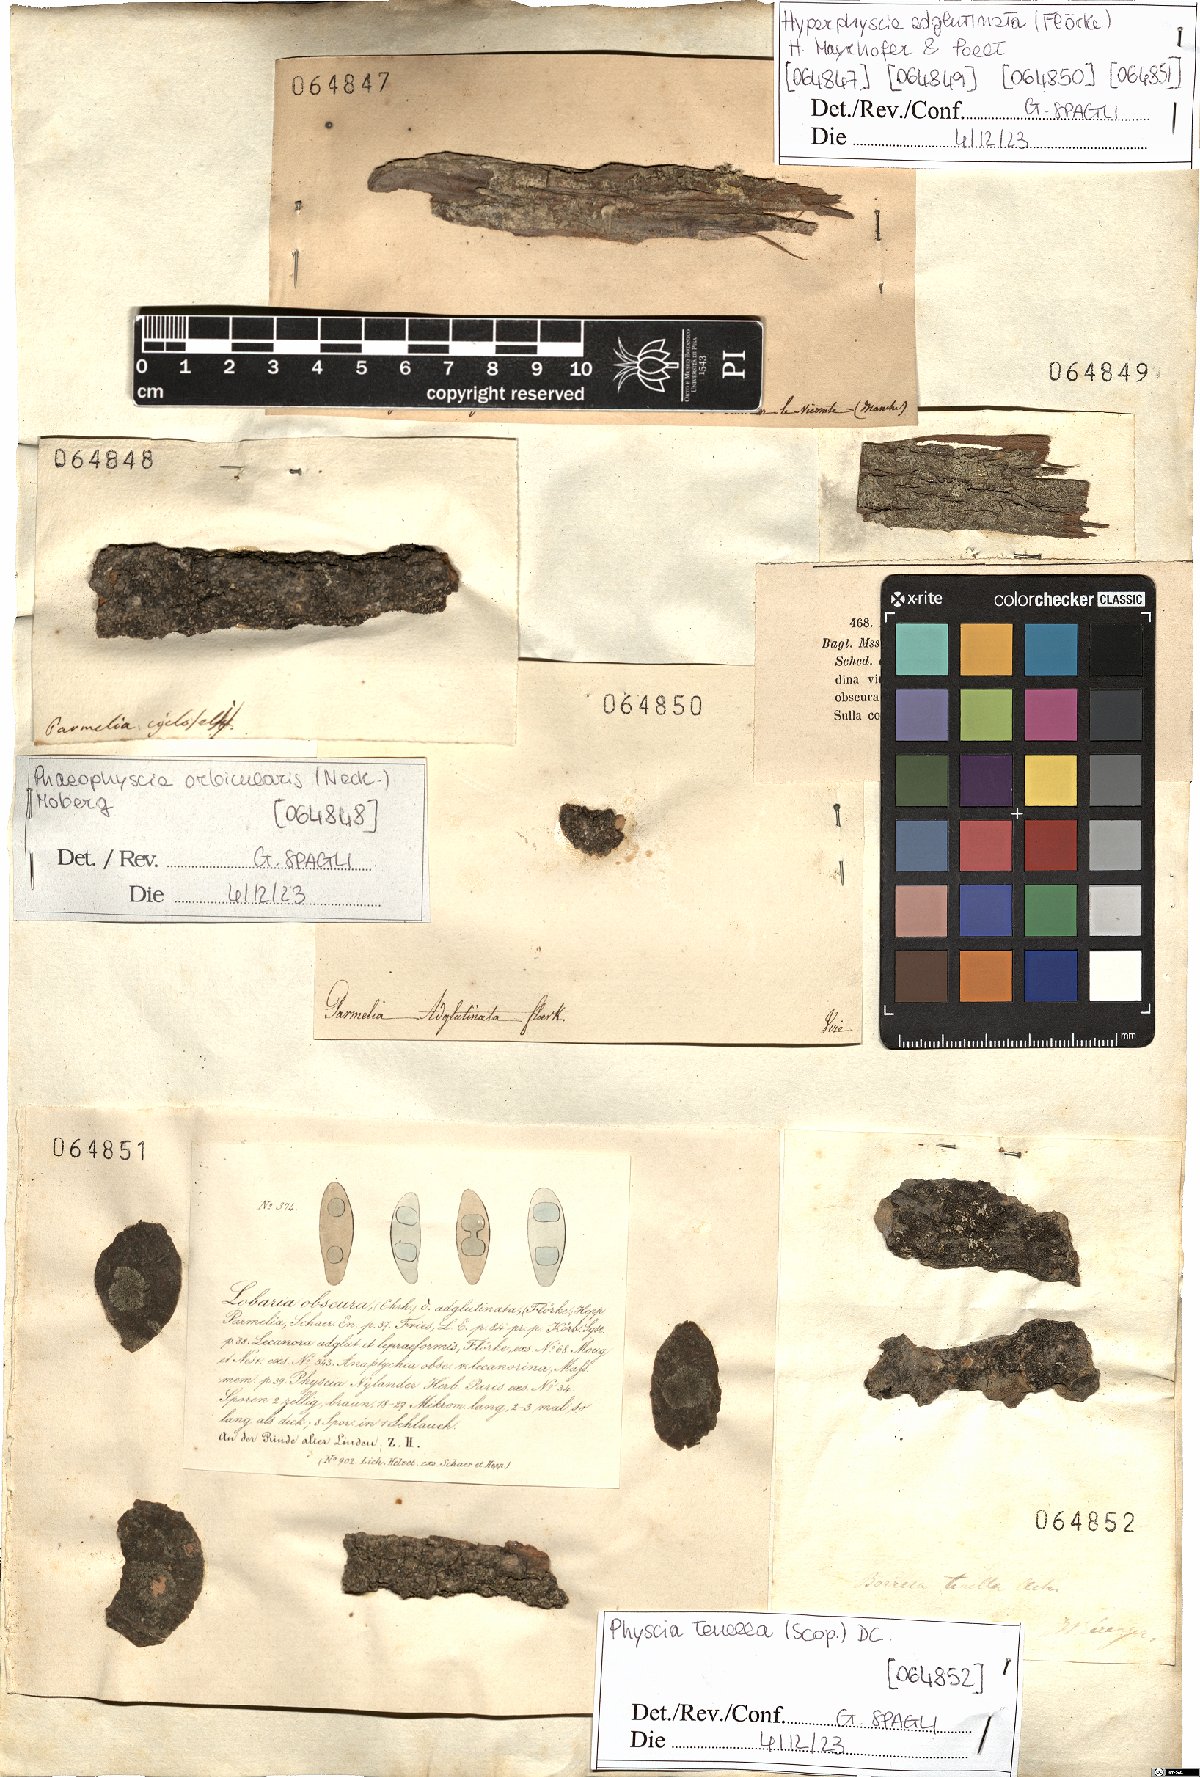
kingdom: Fungi
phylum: Ascomycota
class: Lecanoromycetes
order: Caliciales
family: Physciaceae
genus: Hyperphyscia
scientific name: Hyperphyscia adglutinata
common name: Grainy shadow-crust lichen
